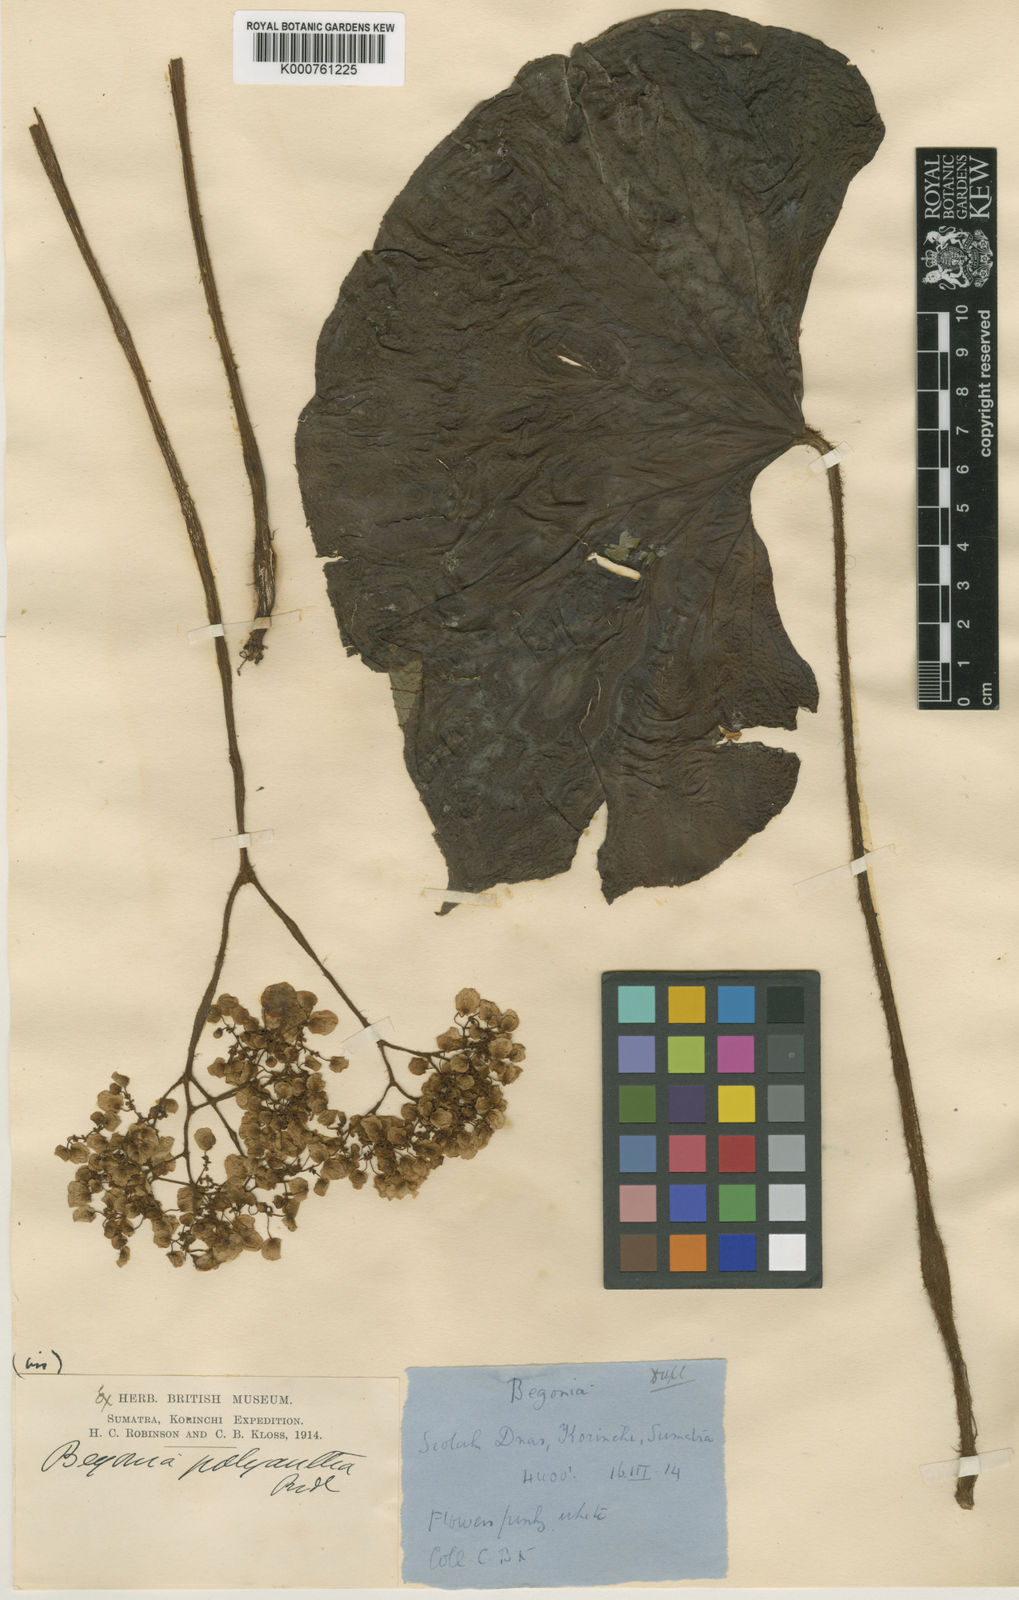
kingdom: Plantae
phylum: Tracheophyta
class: Magnoliopsida
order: Cucurbitales
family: Begoniaceae
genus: Begonia
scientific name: Begonia sychnantha
